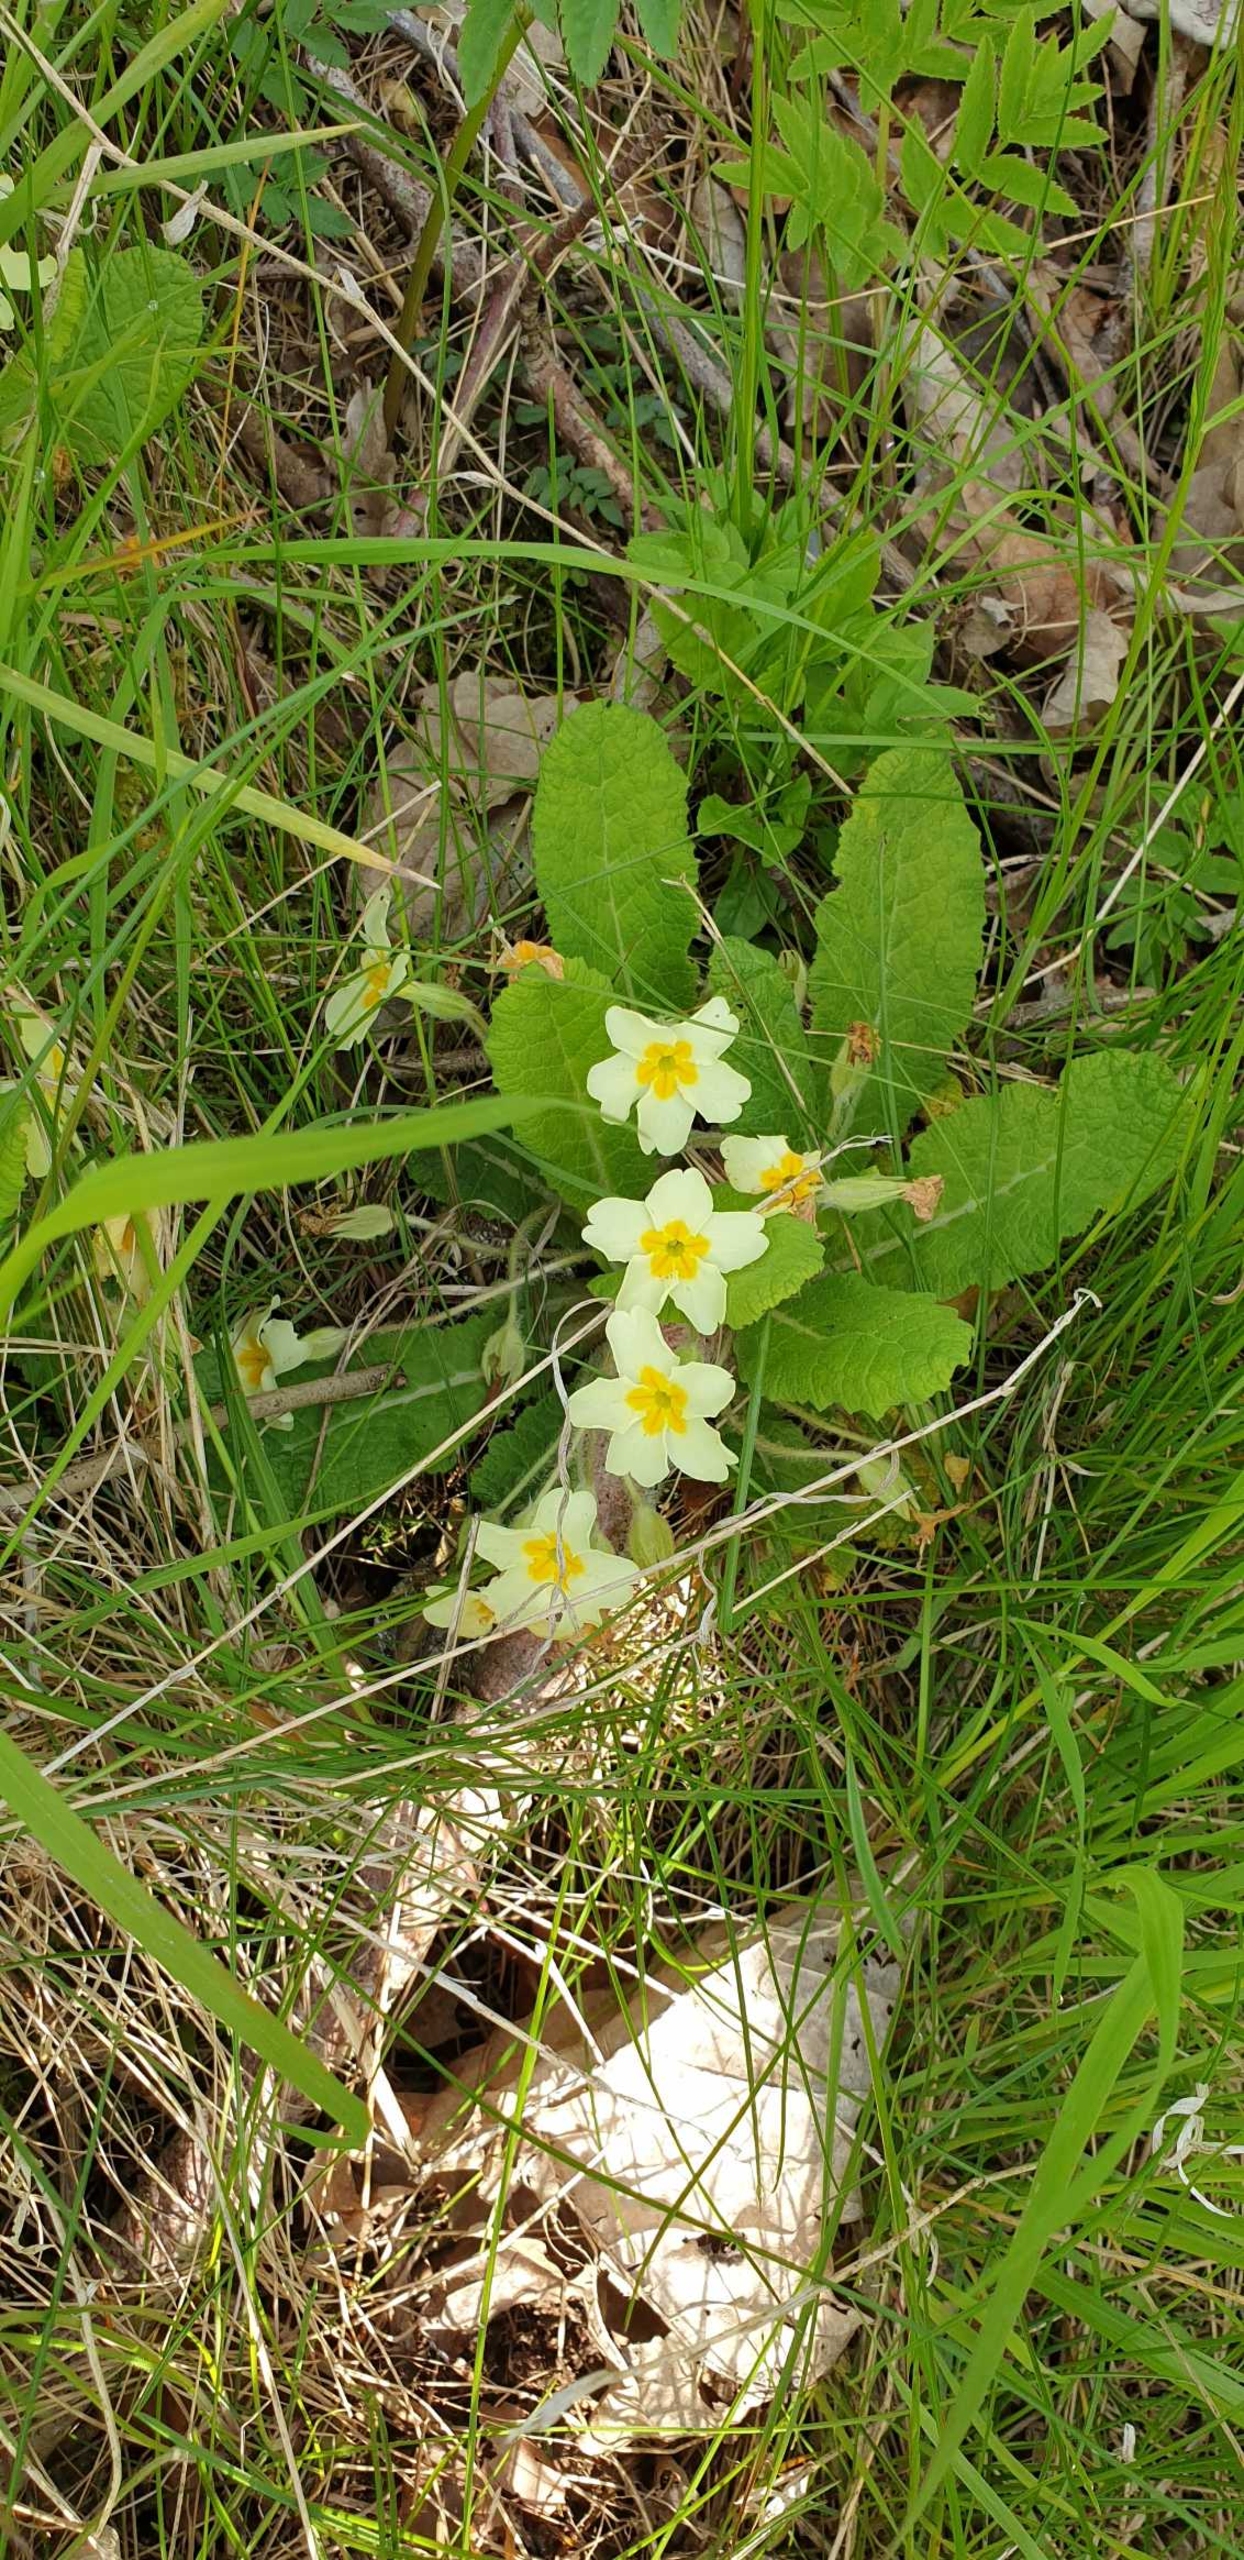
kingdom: Plantae
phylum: Tracheophyta
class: Magnoliopsida
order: Ericales
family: Primulaceae
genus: Primula
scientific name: Primula vulgaris
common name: Storblomstret kodriver
